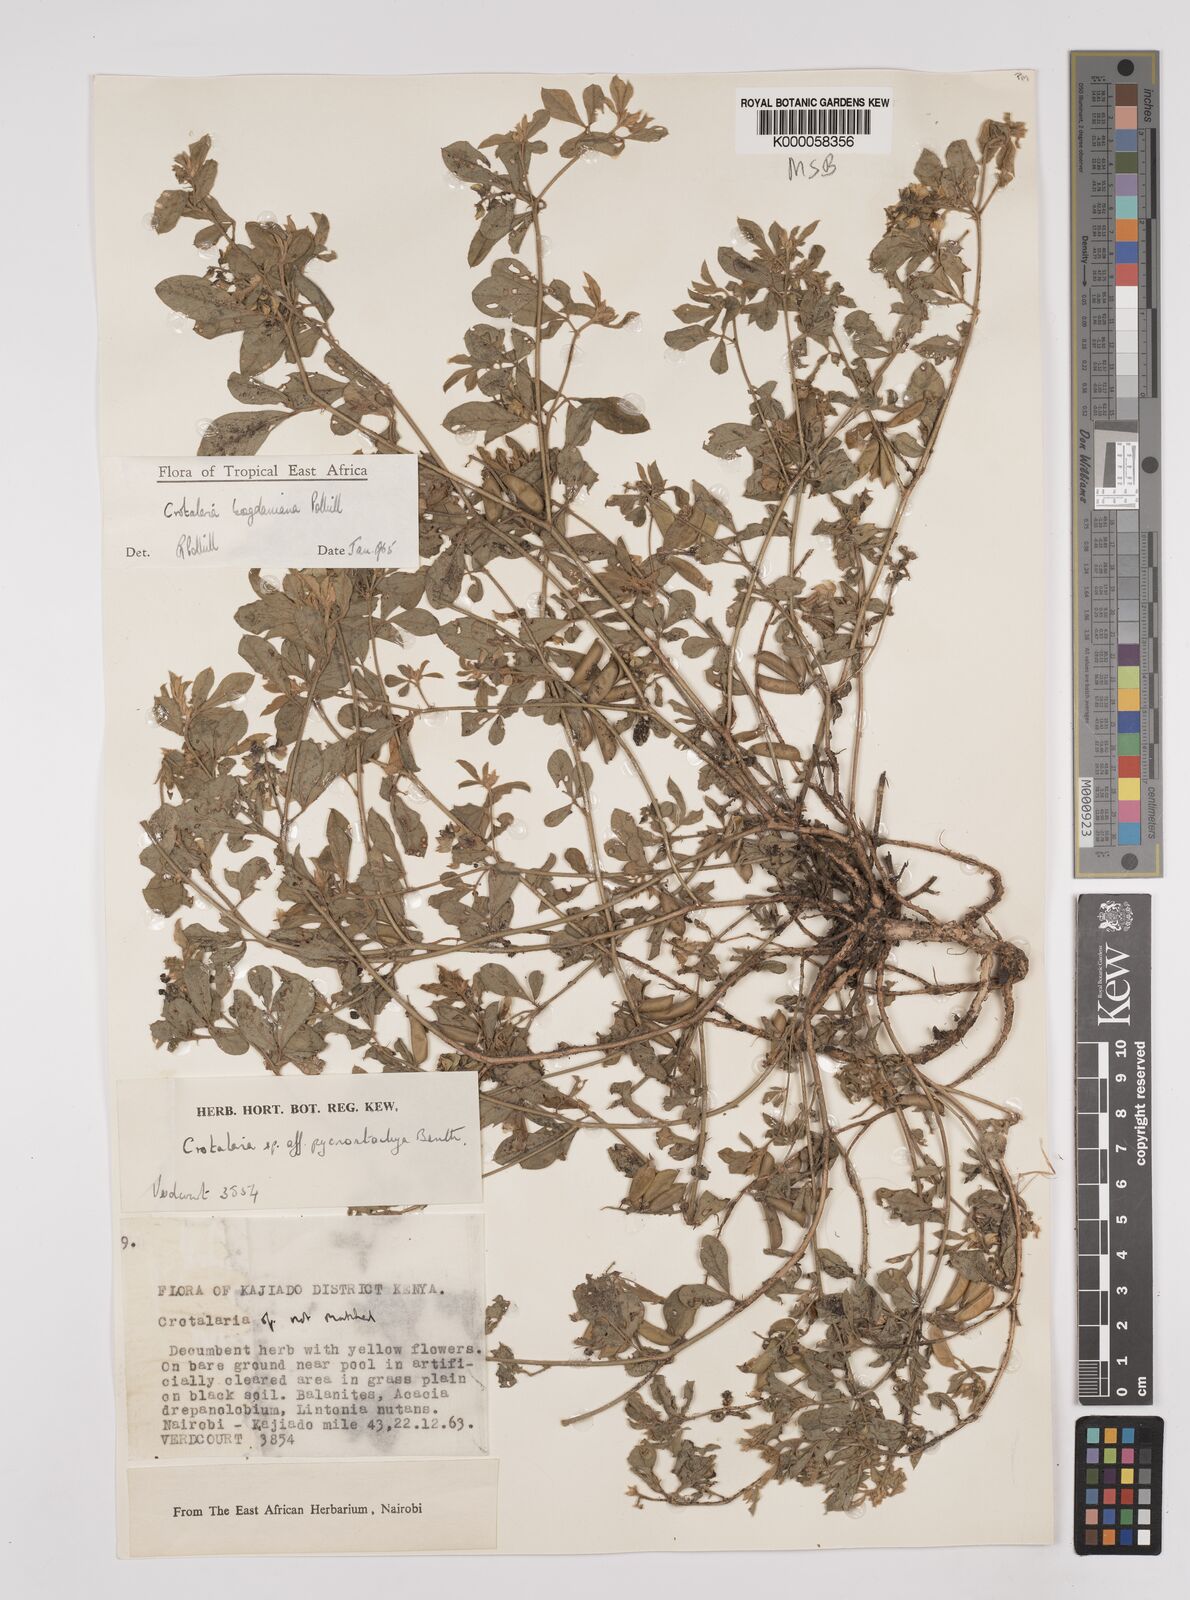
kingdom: Plantae
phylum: Tracheophyta
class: Magnoliopsida
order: Fabales
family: Fabaceae
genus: Crotalaria
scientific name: Crotalaria bogdaniana
